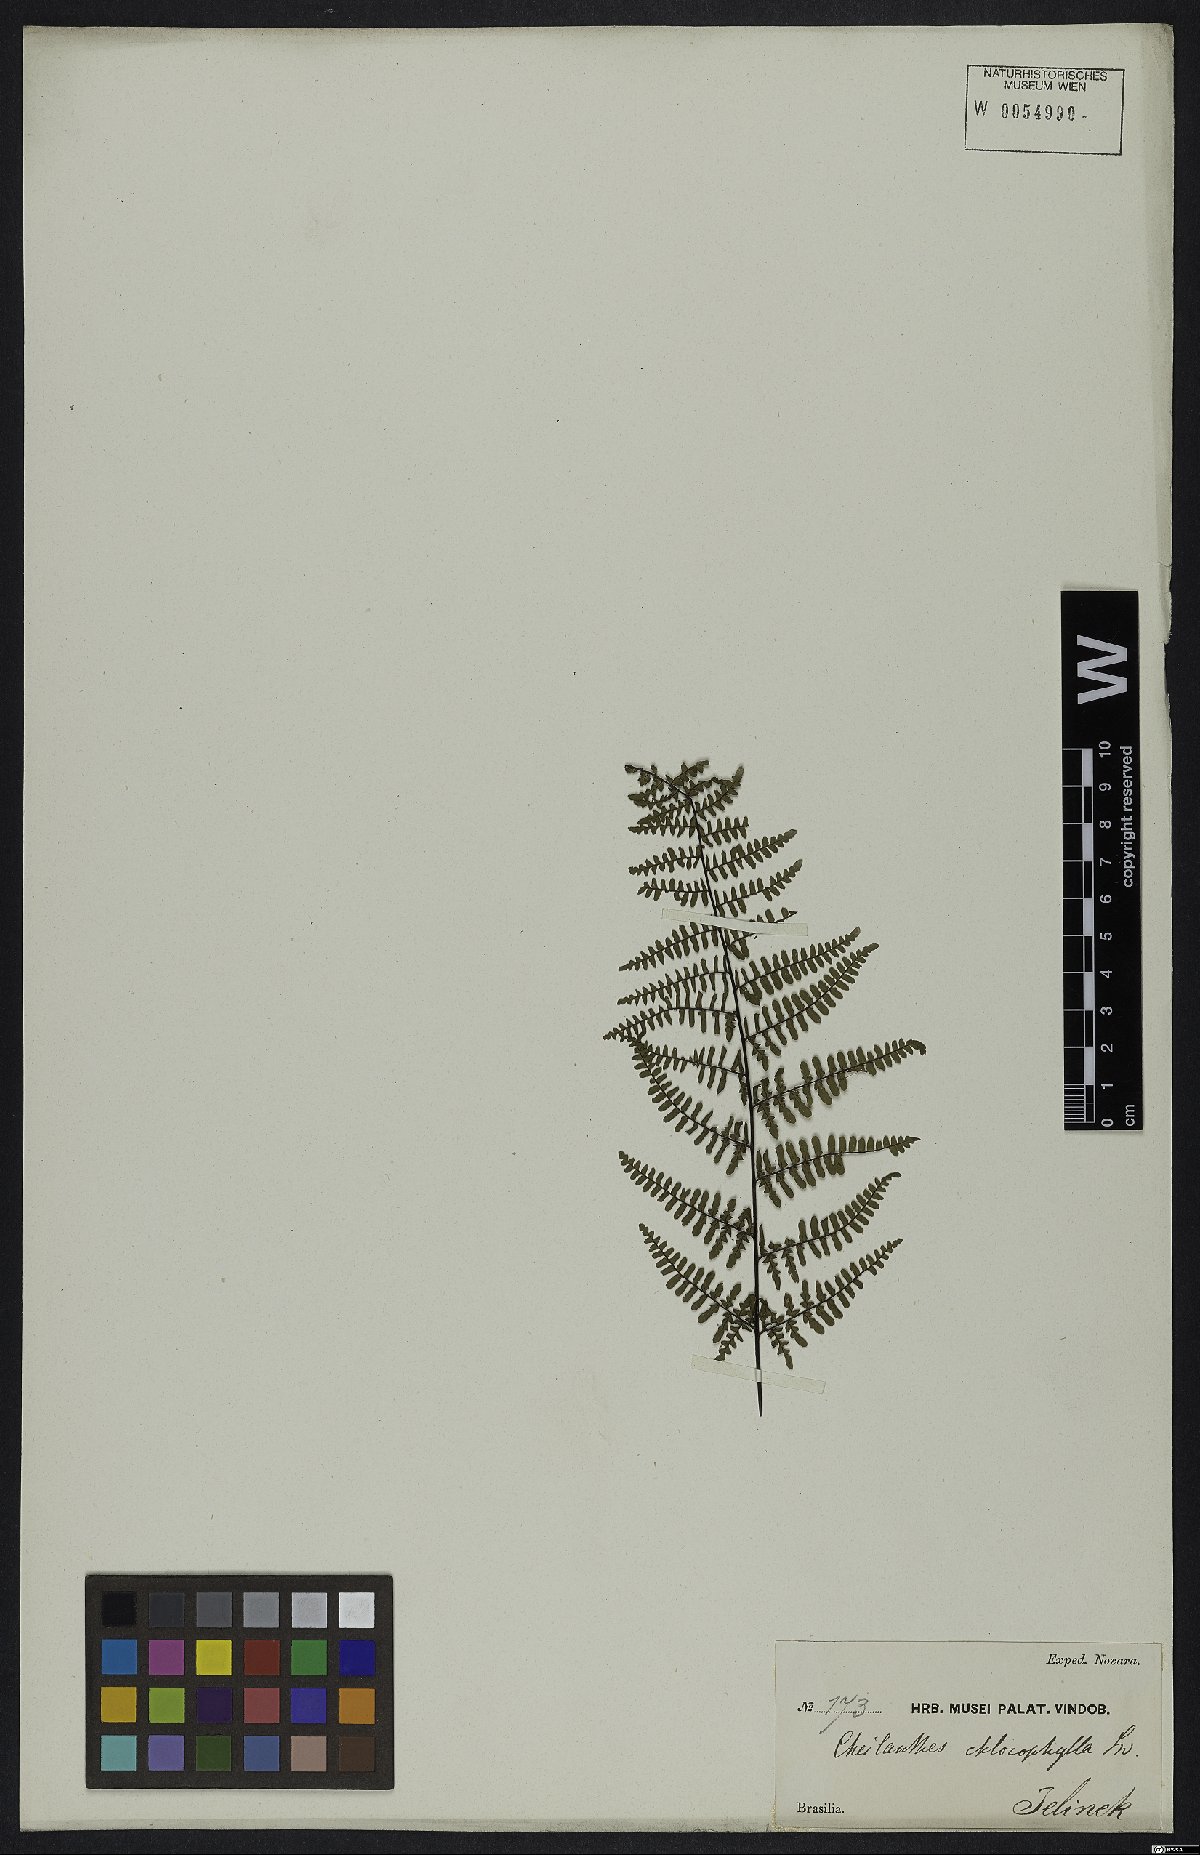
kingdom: Plantae
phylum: Tracheophyta
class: Polypodiopsida
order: Polypodiales
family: Pteridaceae
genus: Adiantopsis
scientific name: Adiantopsis chlorophylla
